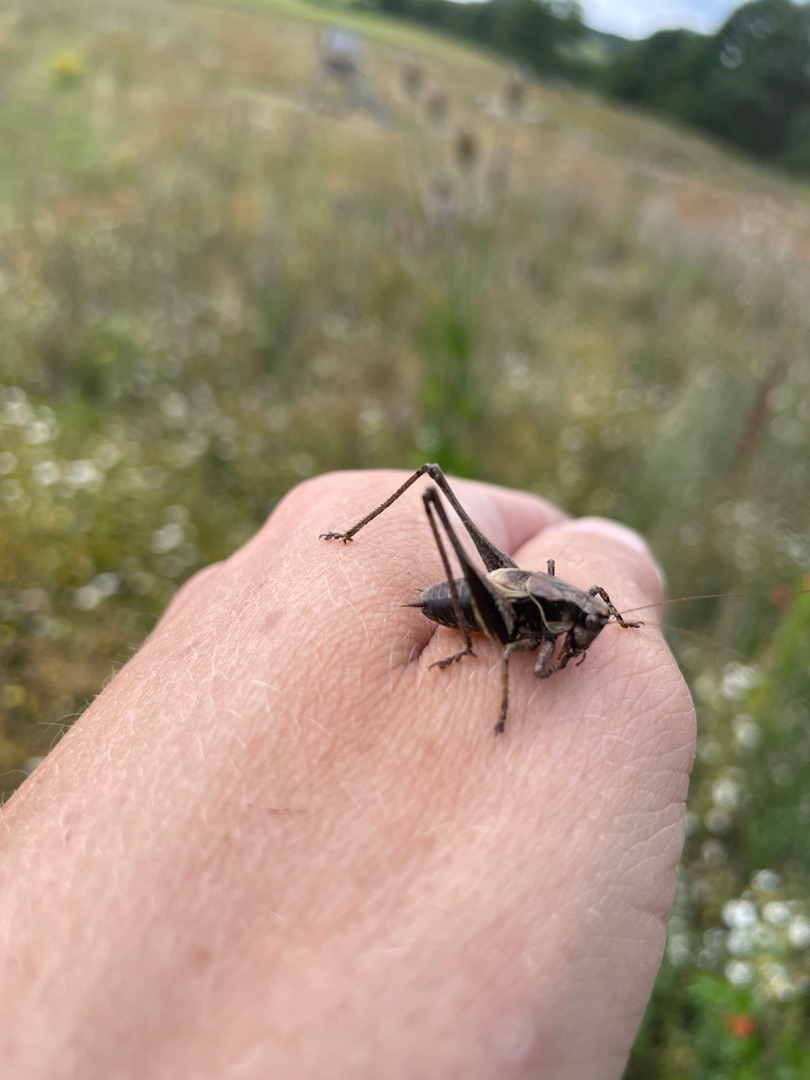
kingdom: Animalia
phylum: Arthropoda
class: Insecta
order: Orthoptera
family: Tettigoniidae
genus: Pholidoptera
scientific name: Pholidoptera griseoaptera
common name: Buskgræshoppe
